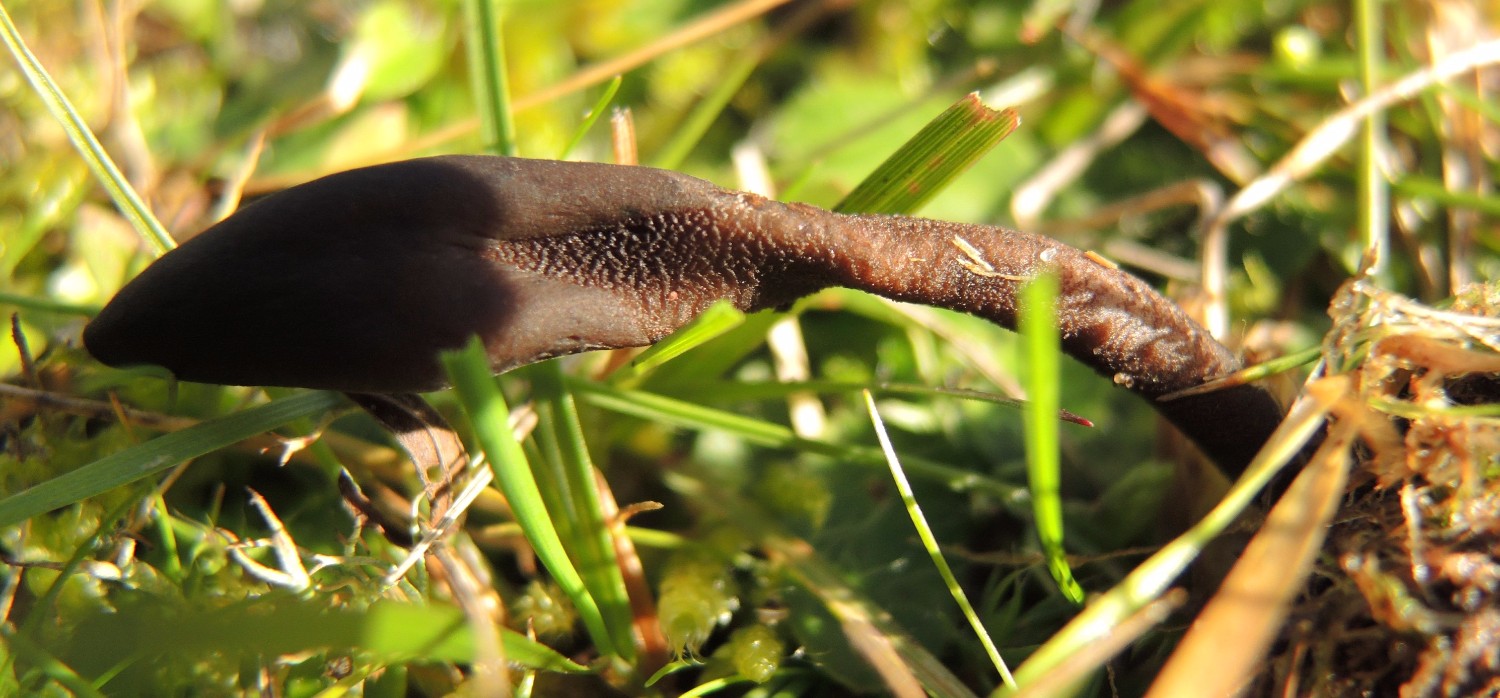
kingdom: Fungi
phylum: Ascomycota
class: Geoglossomycetes
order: Geoglossales
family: Geoglossaceae
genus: Geoglossum
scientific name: Geoglossum umbratile
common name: slank jordtunge
